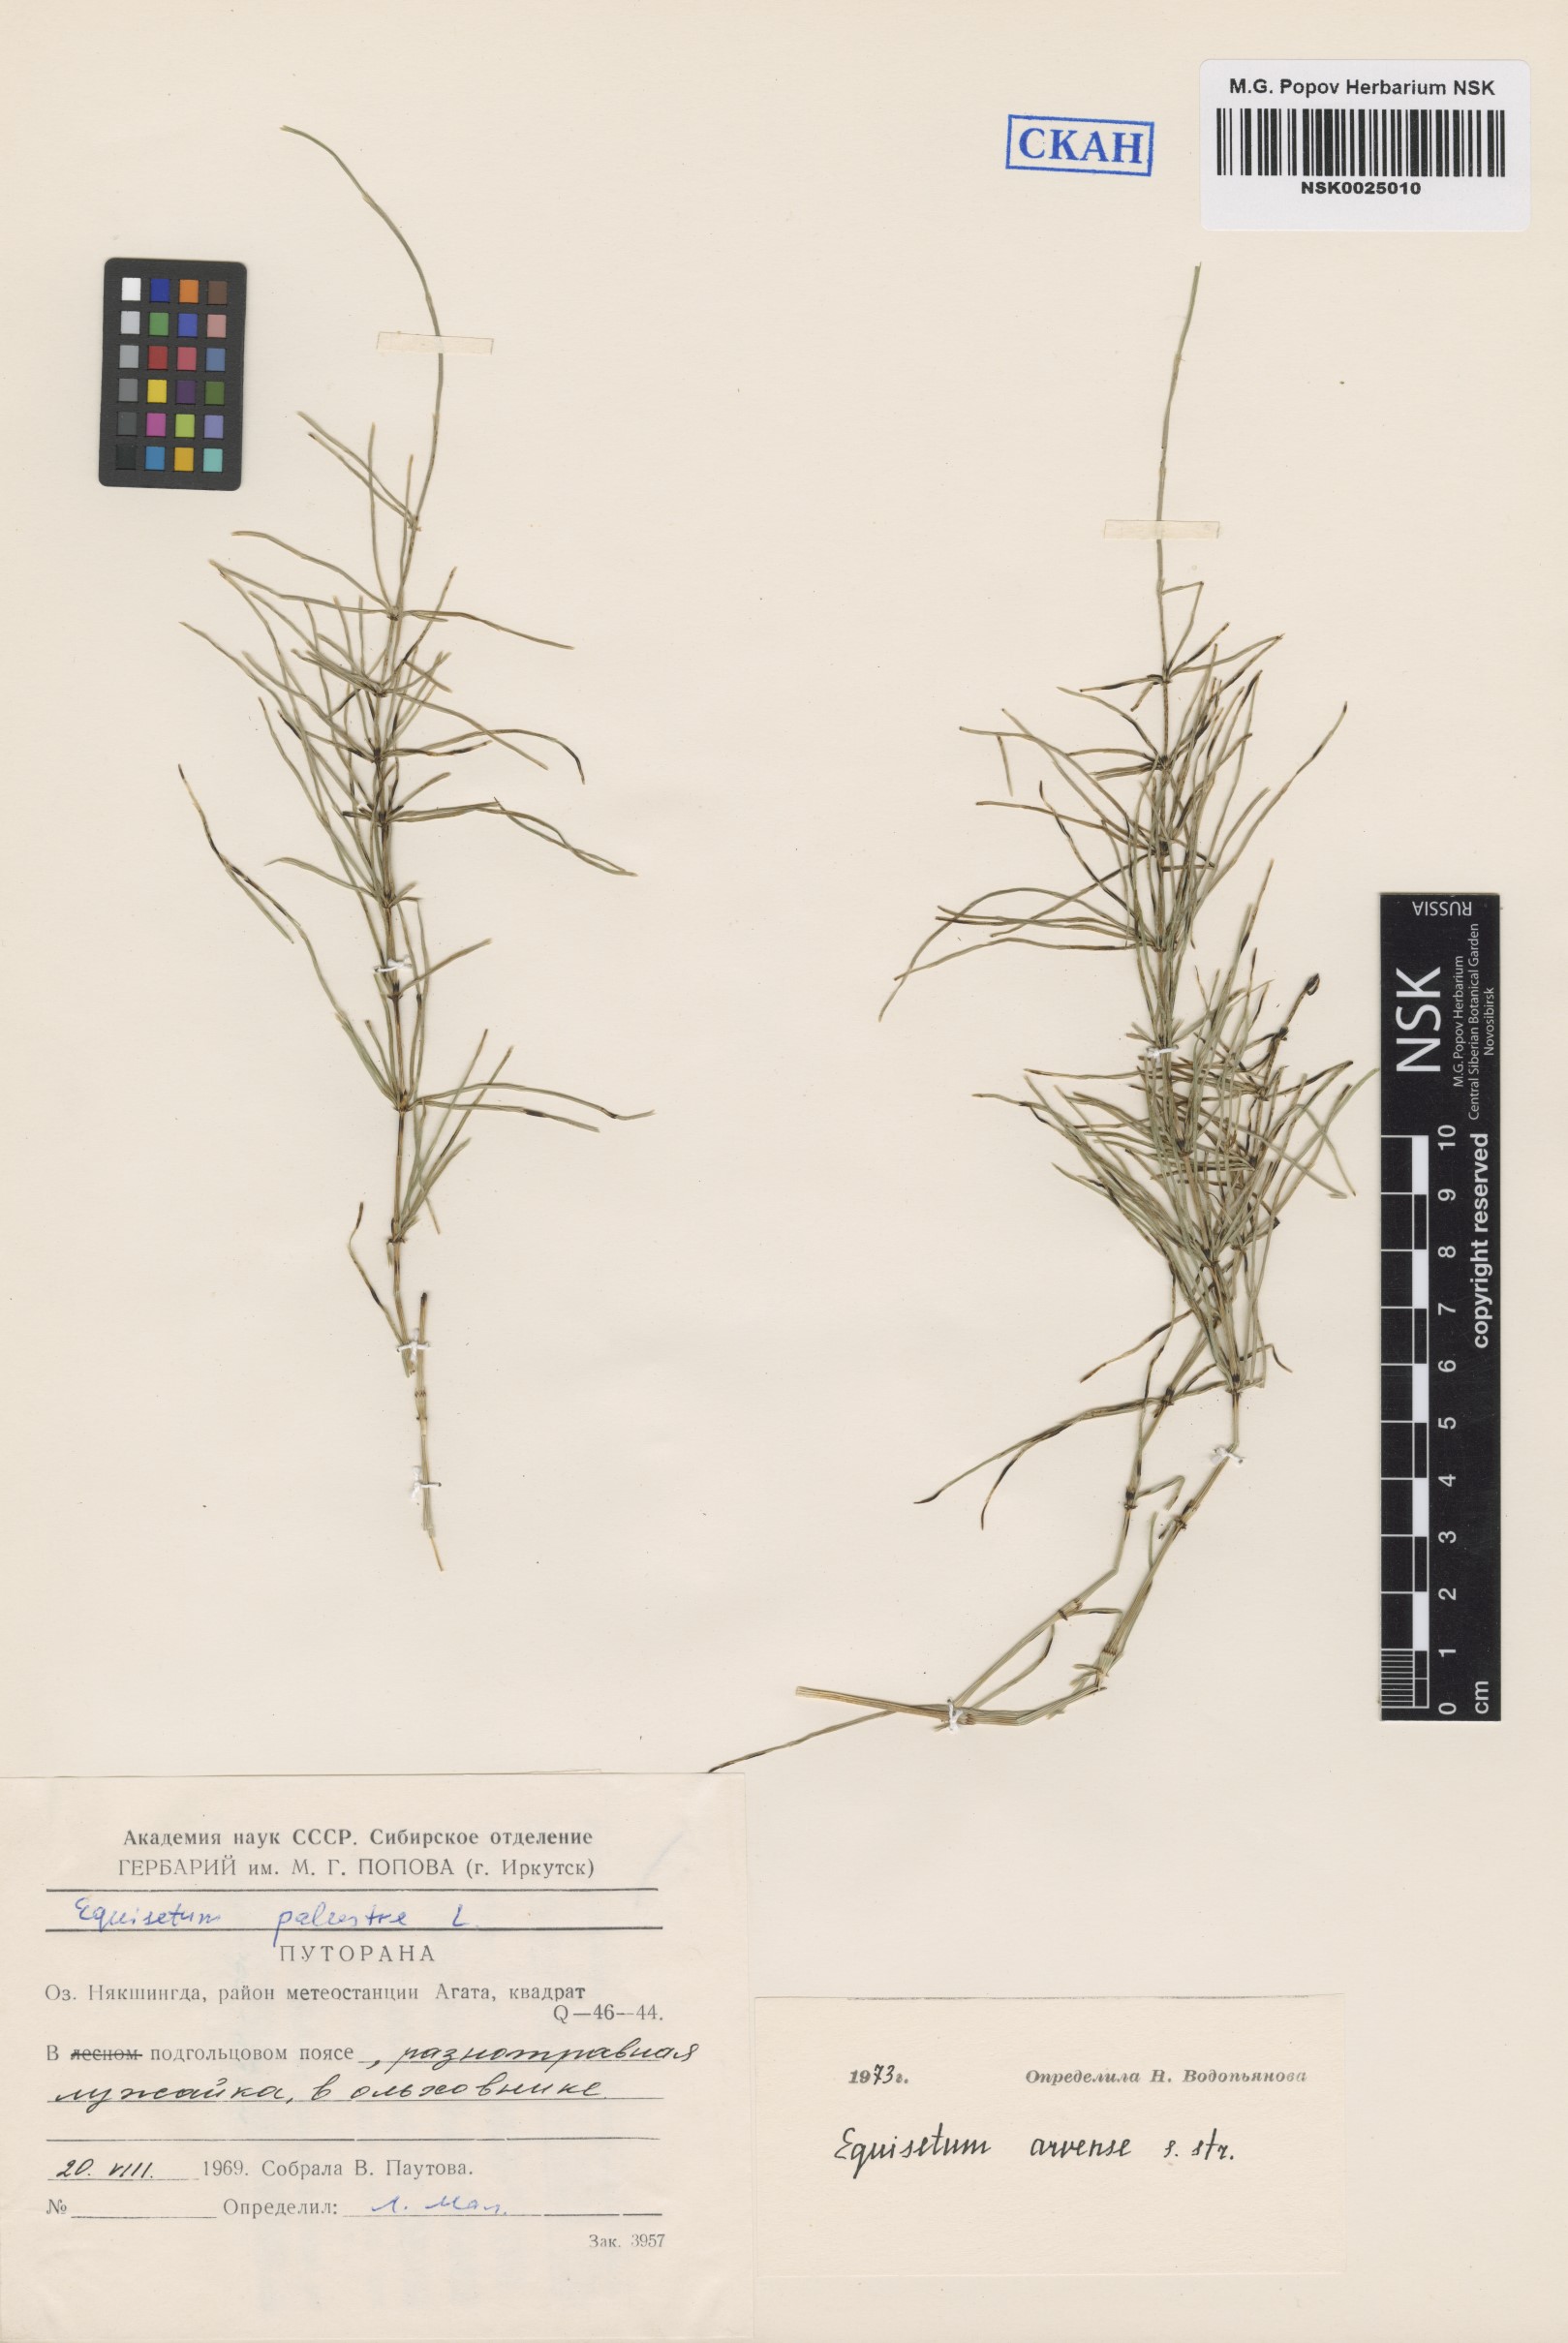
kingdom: Plantae
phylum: Tracheophyta
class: Polypodiopsida
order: Equisetales
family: Equisetaceae
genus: Equisetum
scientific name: Equisetum arvense
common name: Field horsetail
